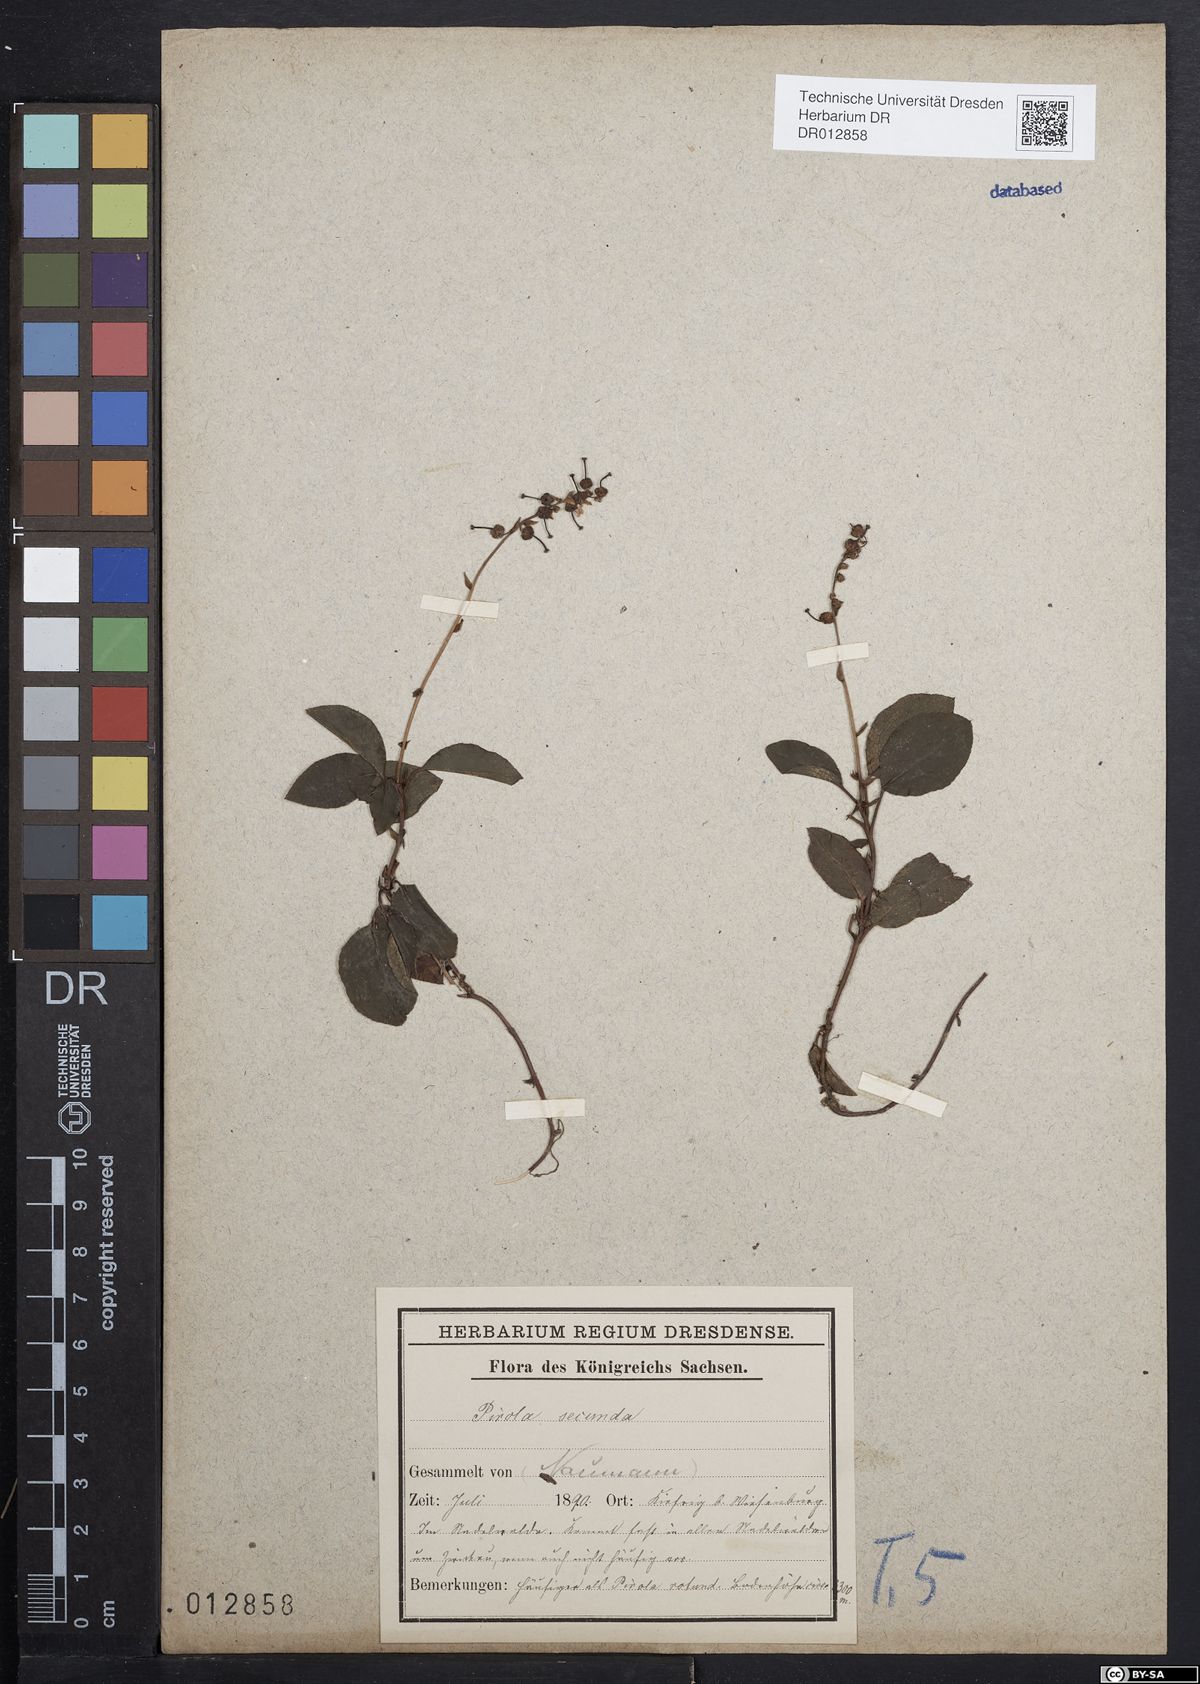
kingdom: Plantae
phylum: Tracheophyta
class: Magnoliopsida
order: Ericales
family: Ericaceae
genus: Orthilia
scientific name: Orthilia secunda
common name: One-sided orthilia
